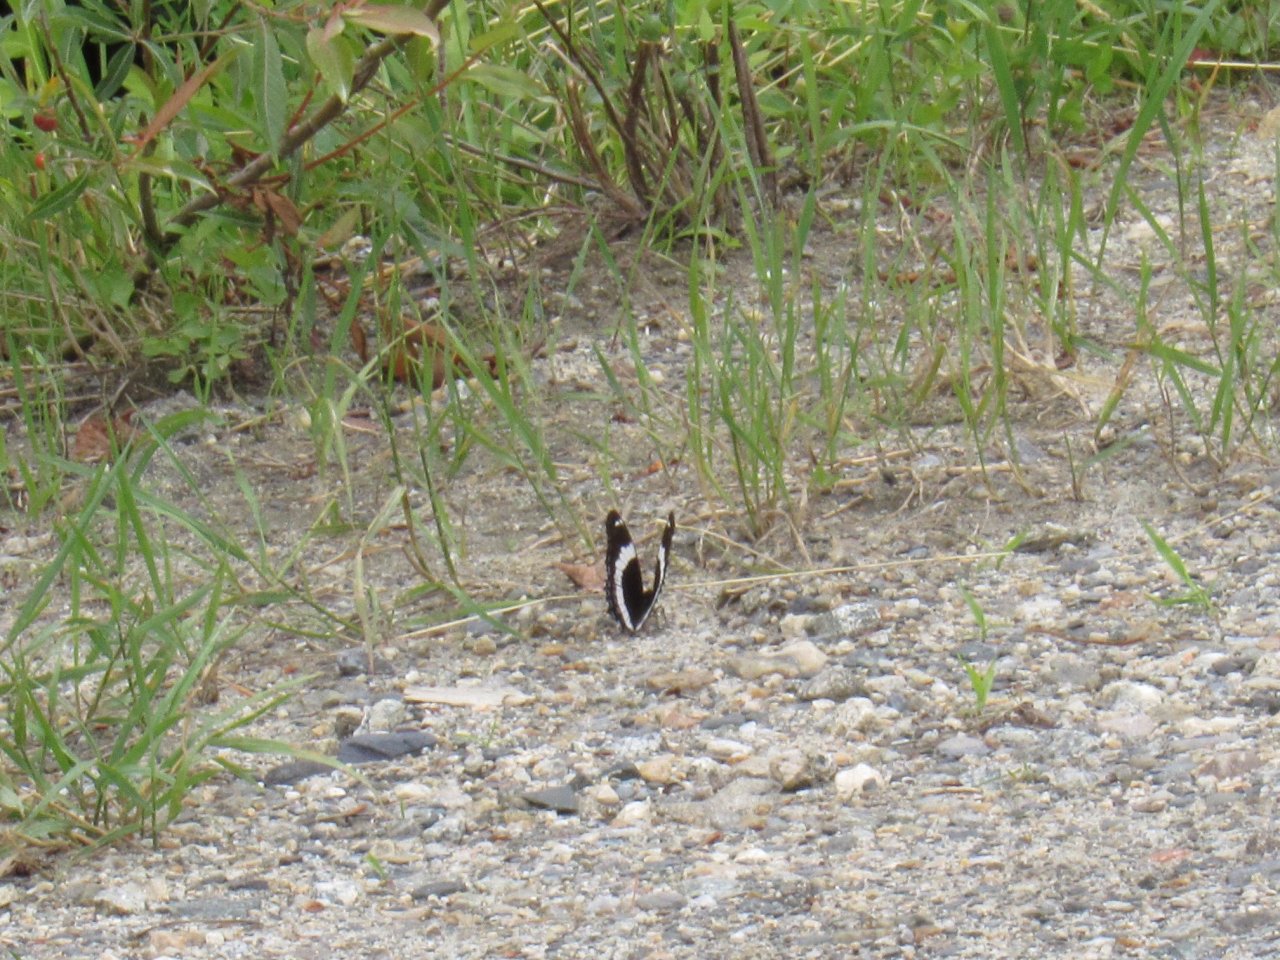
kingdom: Animalia
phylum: Arthropoda
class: Insecta
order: Lepidoptera
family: Nymphalidae
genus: Limenitis
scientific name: Limenitis arthemis
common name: Red-spotted Admiral
